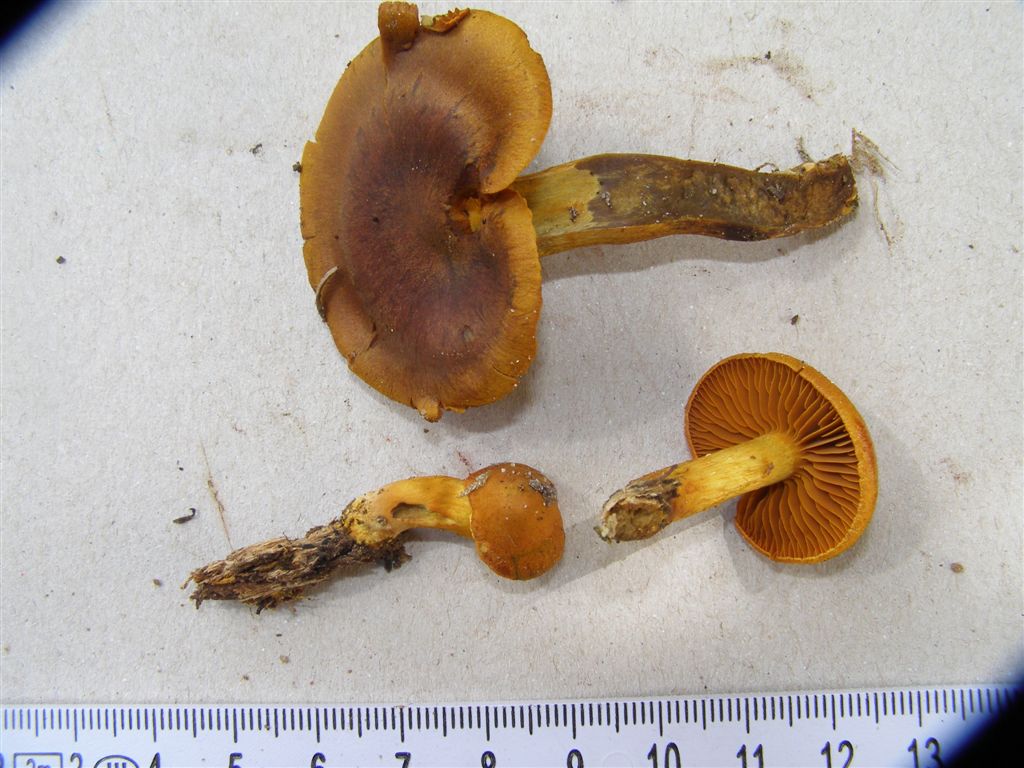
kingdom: Fungi
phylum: Basidiomycota
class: Agaricomycetes
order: Agaricales
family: Cortinariaceae
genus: Cortinarius
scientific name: Cortinarius malicorius
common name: grønkødet slørhat
